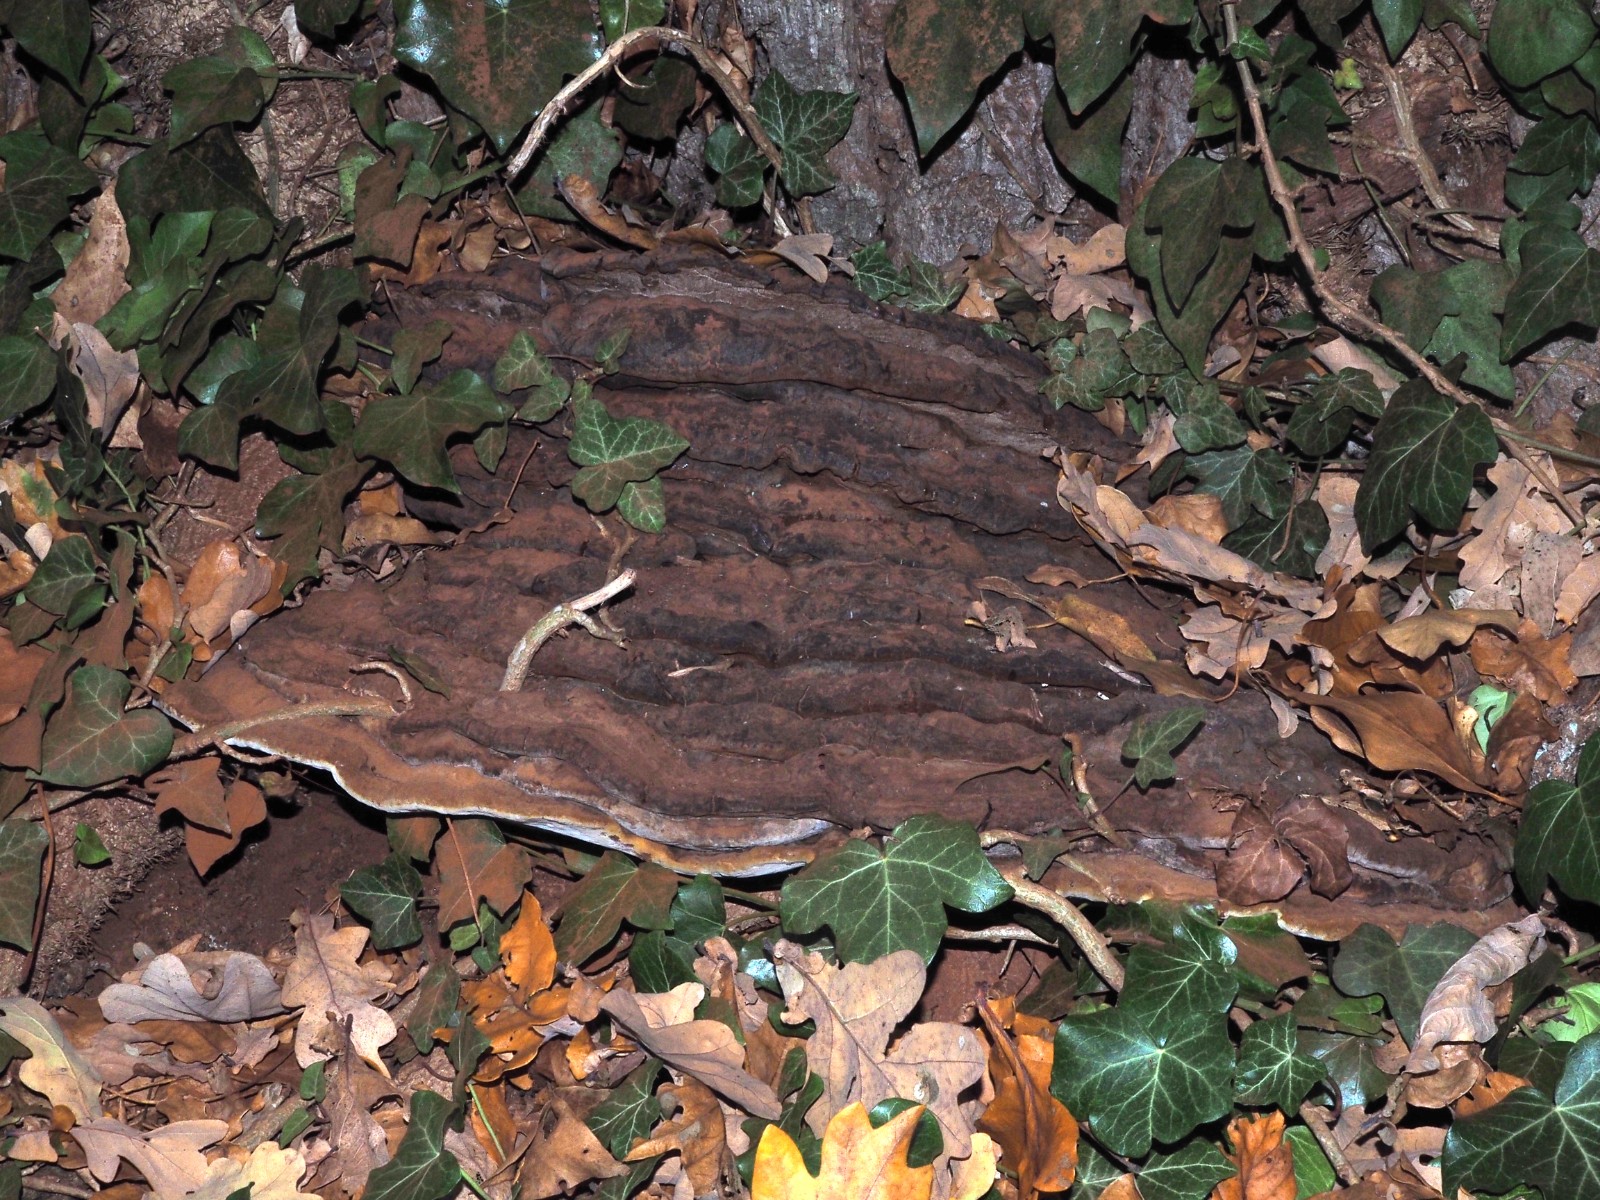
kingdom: Fungi
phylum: Basidiomycota
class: Agaricomycetes
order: Polyporales
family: Polyporaceae
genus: Ganoderma
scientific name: Ganoderma adspersum
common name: grov lakporesvamp
